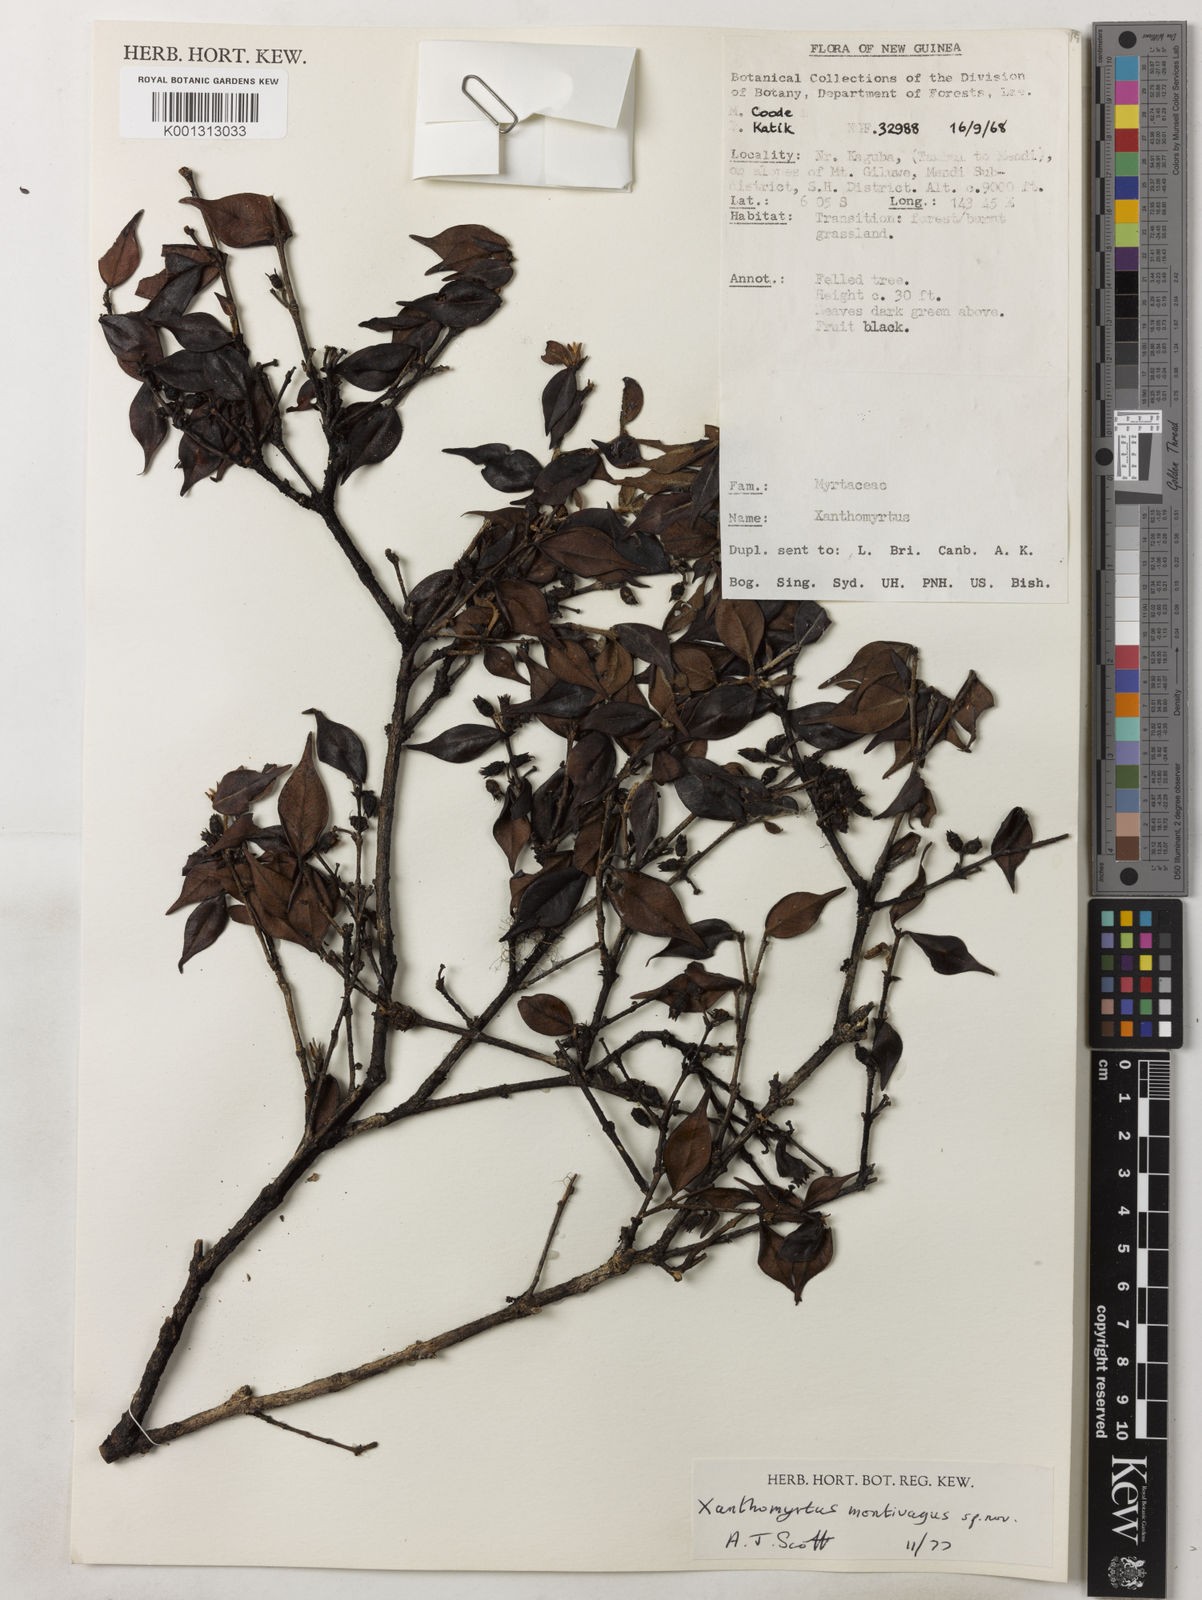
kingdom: Plantae
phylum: Tracheophyta
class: Magnoliopsida
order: Myrtales
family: Myrtaceae
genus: Xanthomyrtus
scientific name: Xanthomyrtus montivaga
